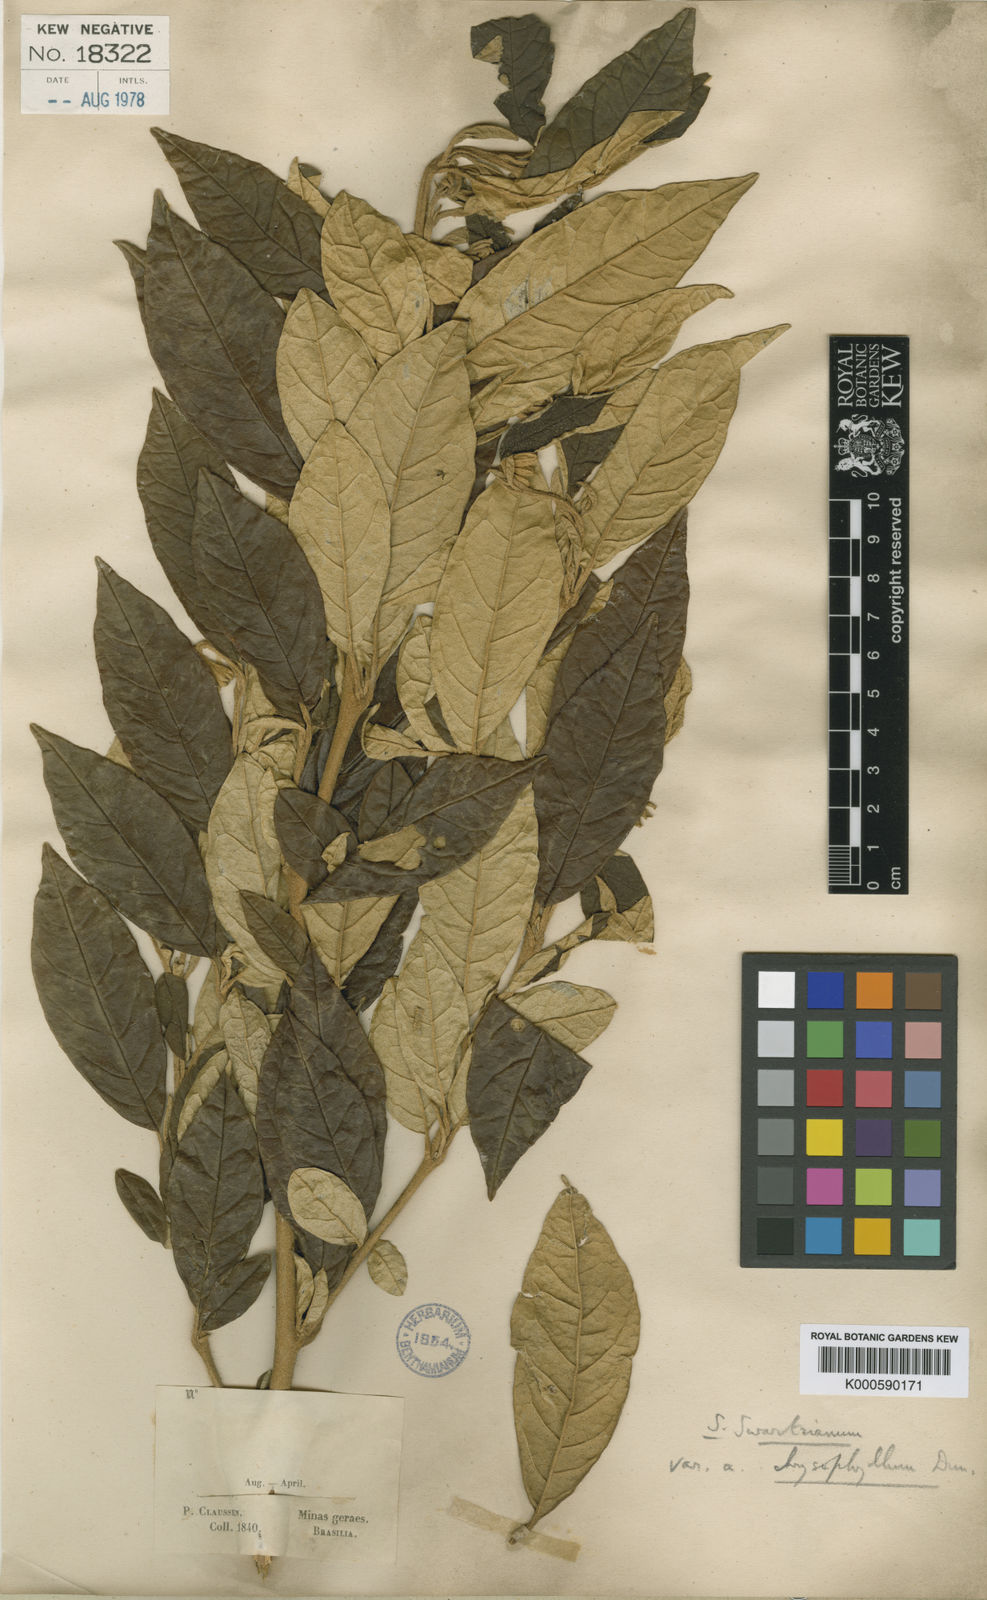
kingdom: Plantae
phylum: Tracheophyta
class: Magnoliopsida
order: Solanales
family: Solanaceae
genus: Solanum
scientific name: Solanum swartzianum
